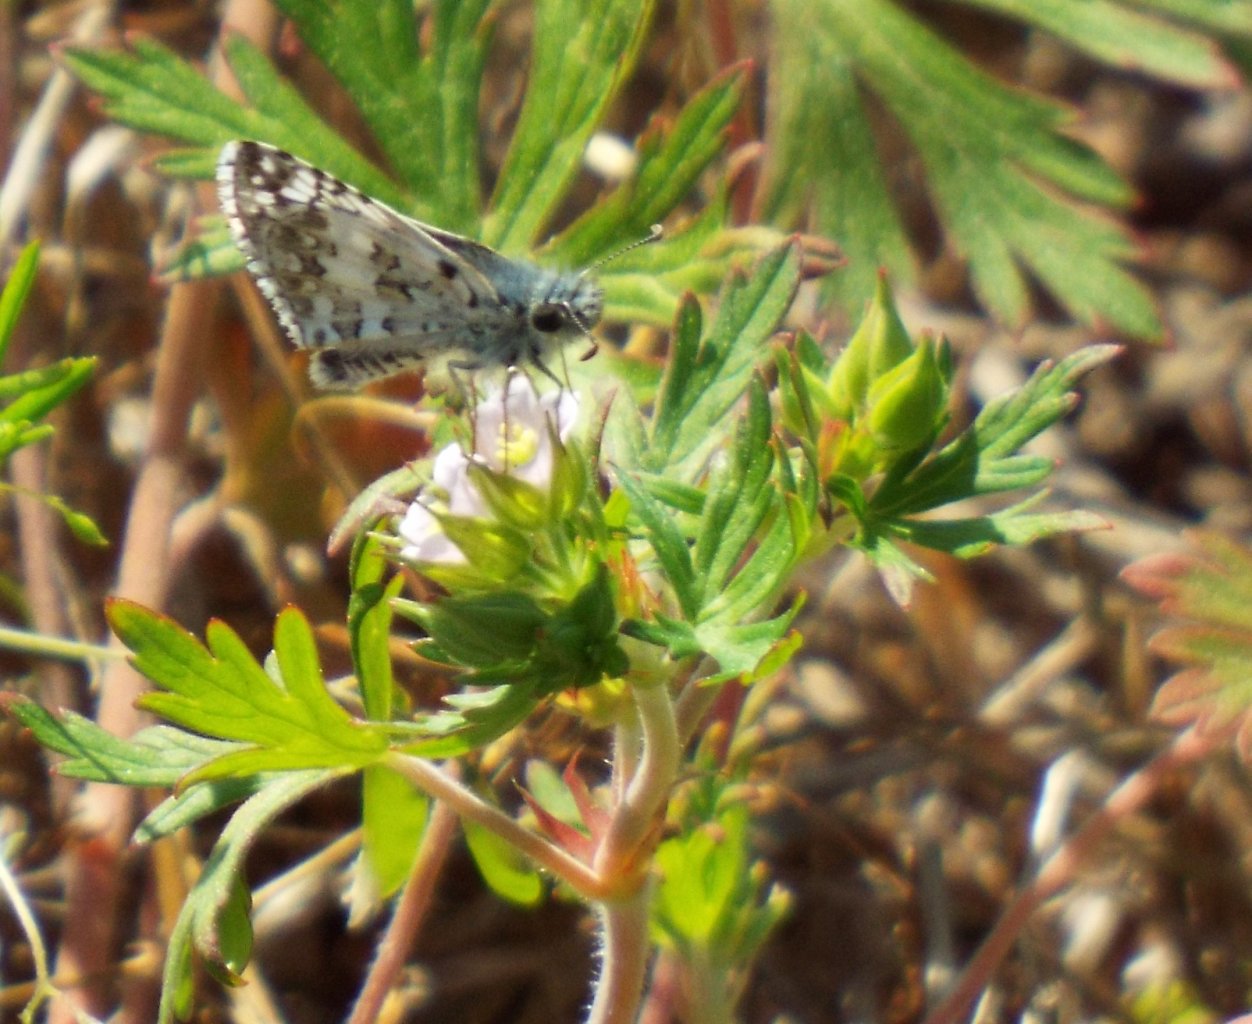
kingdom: Animalia
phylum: Arthropoda
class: Insecta
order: Lepidoptera
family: Hesperiidae
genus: Pyrgus
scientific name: Pyrgus communis
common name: White Checkered-Skipper
